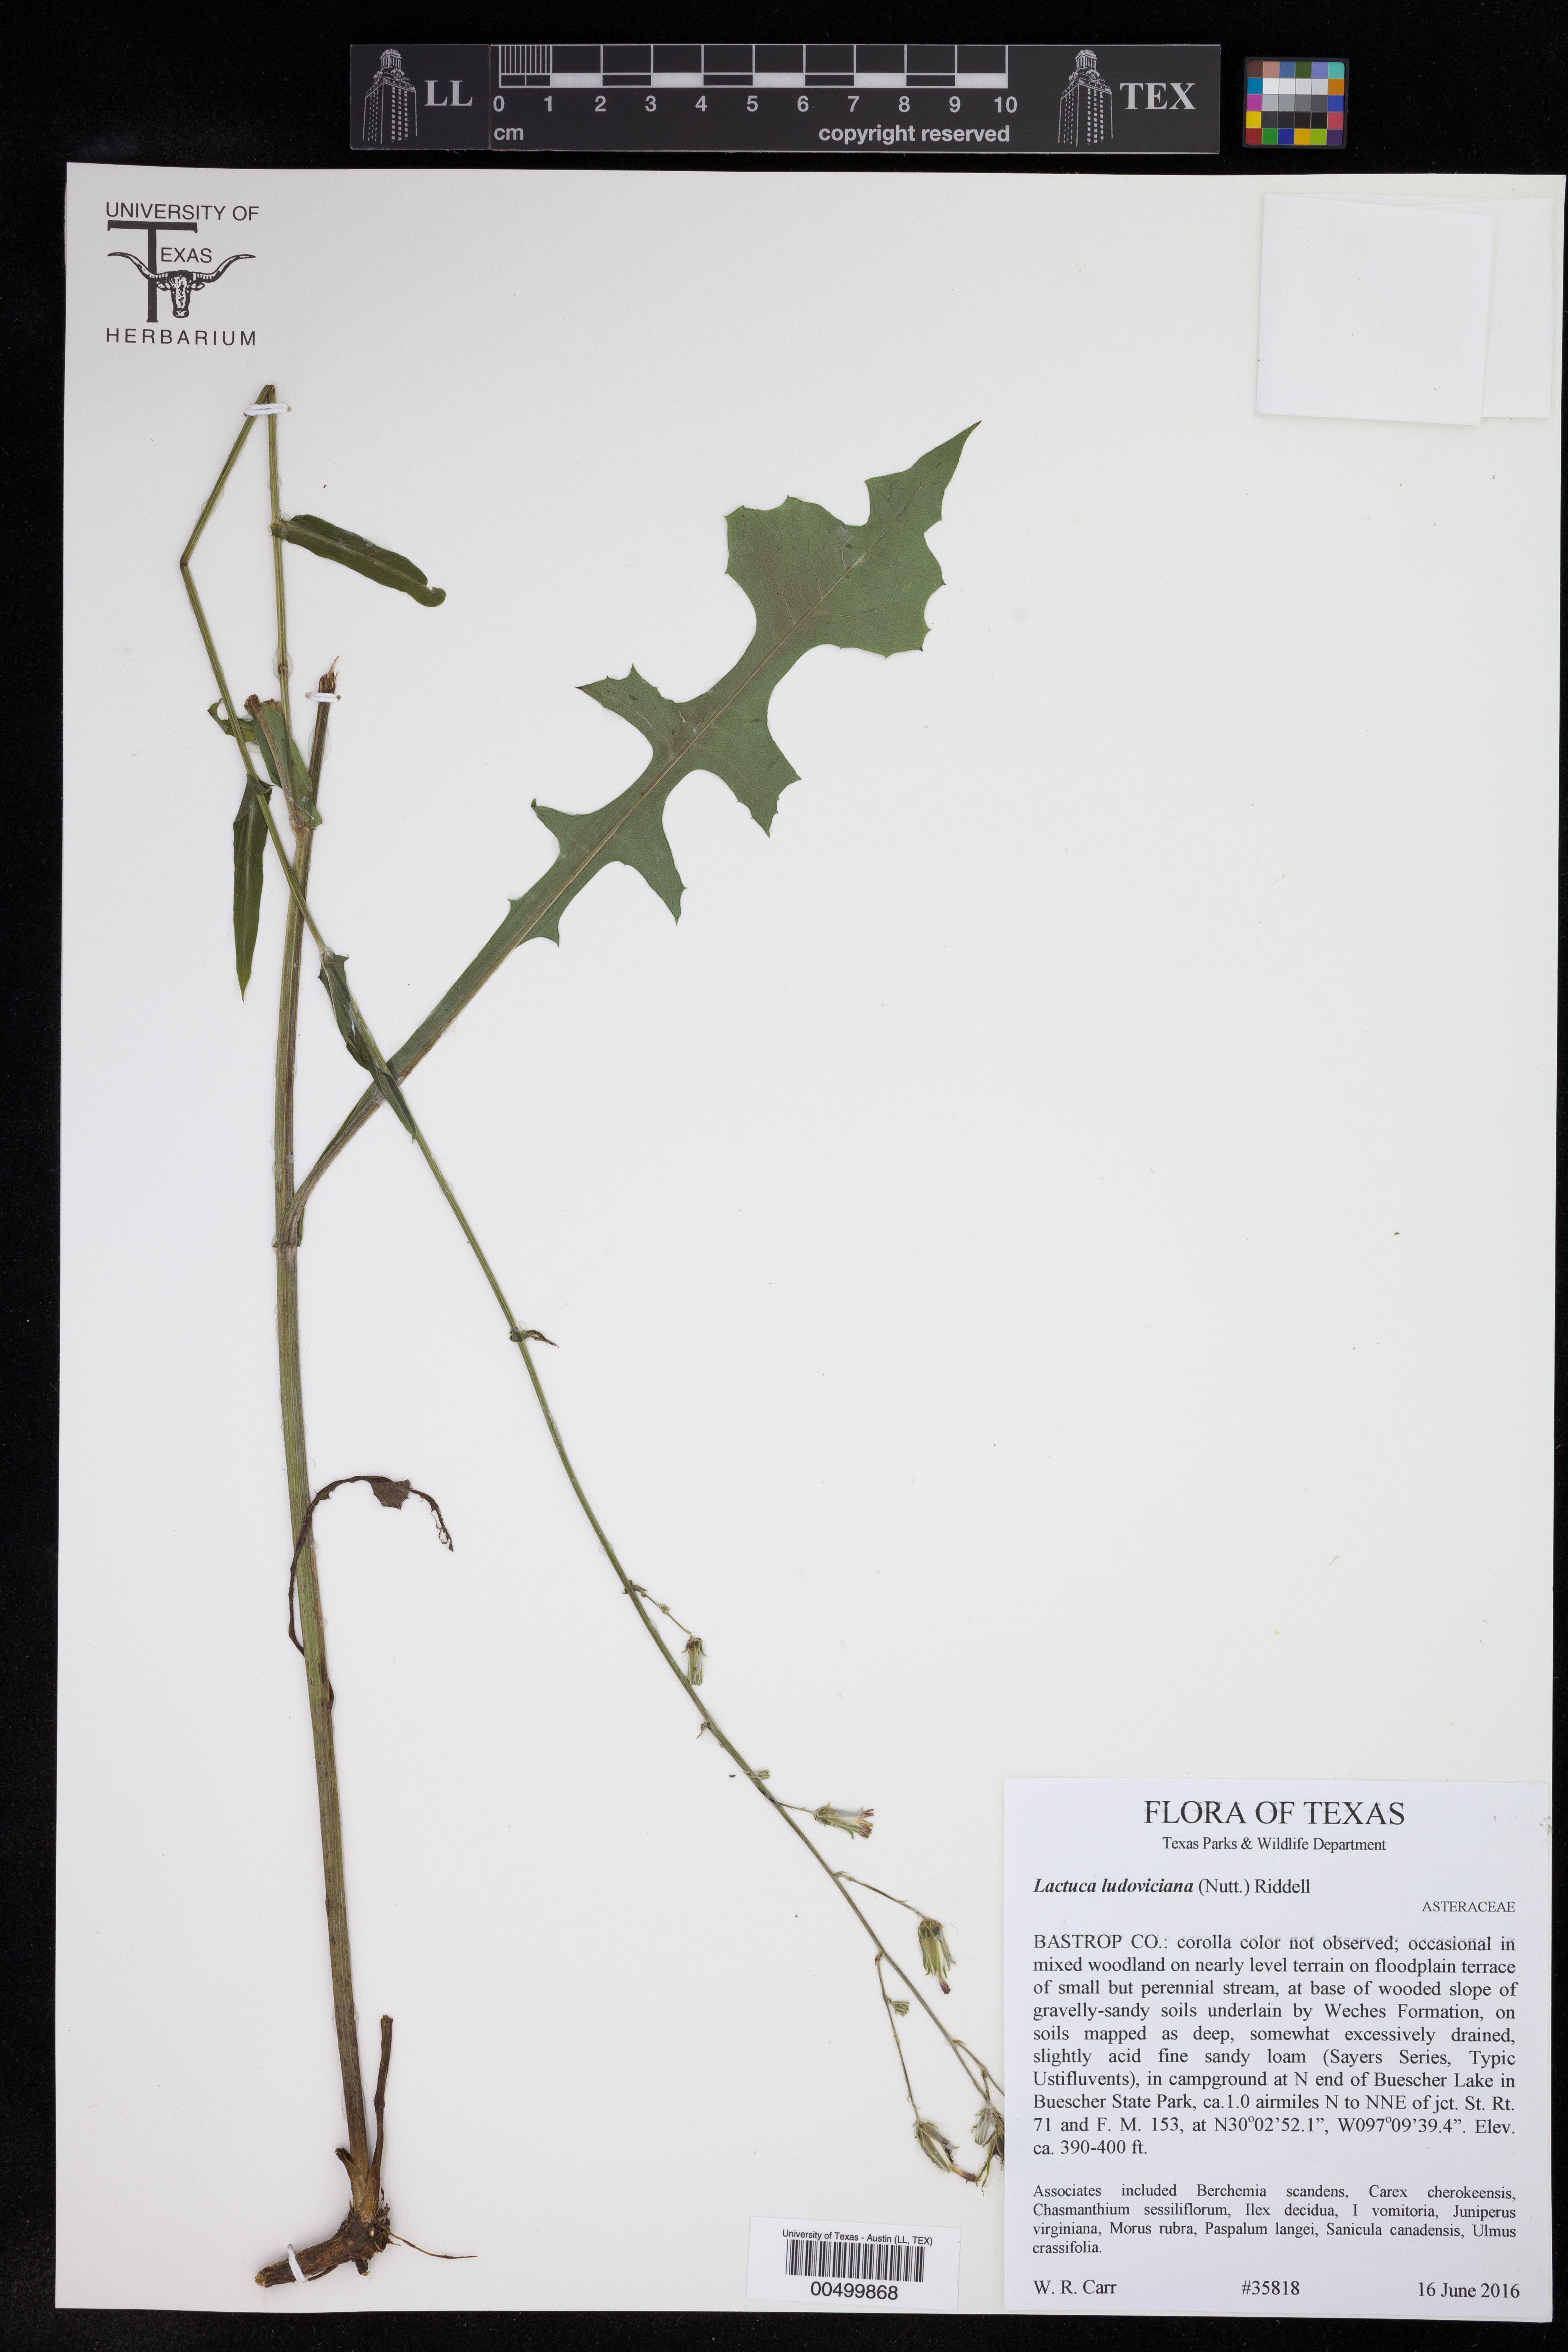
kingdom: Plantae
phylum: Tracheophyta
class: Magnoliopsida
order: Asterales
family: Asteraceae
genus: Lactuca
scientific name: Lactuca ludoviciana
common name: Louisiana lettuce
